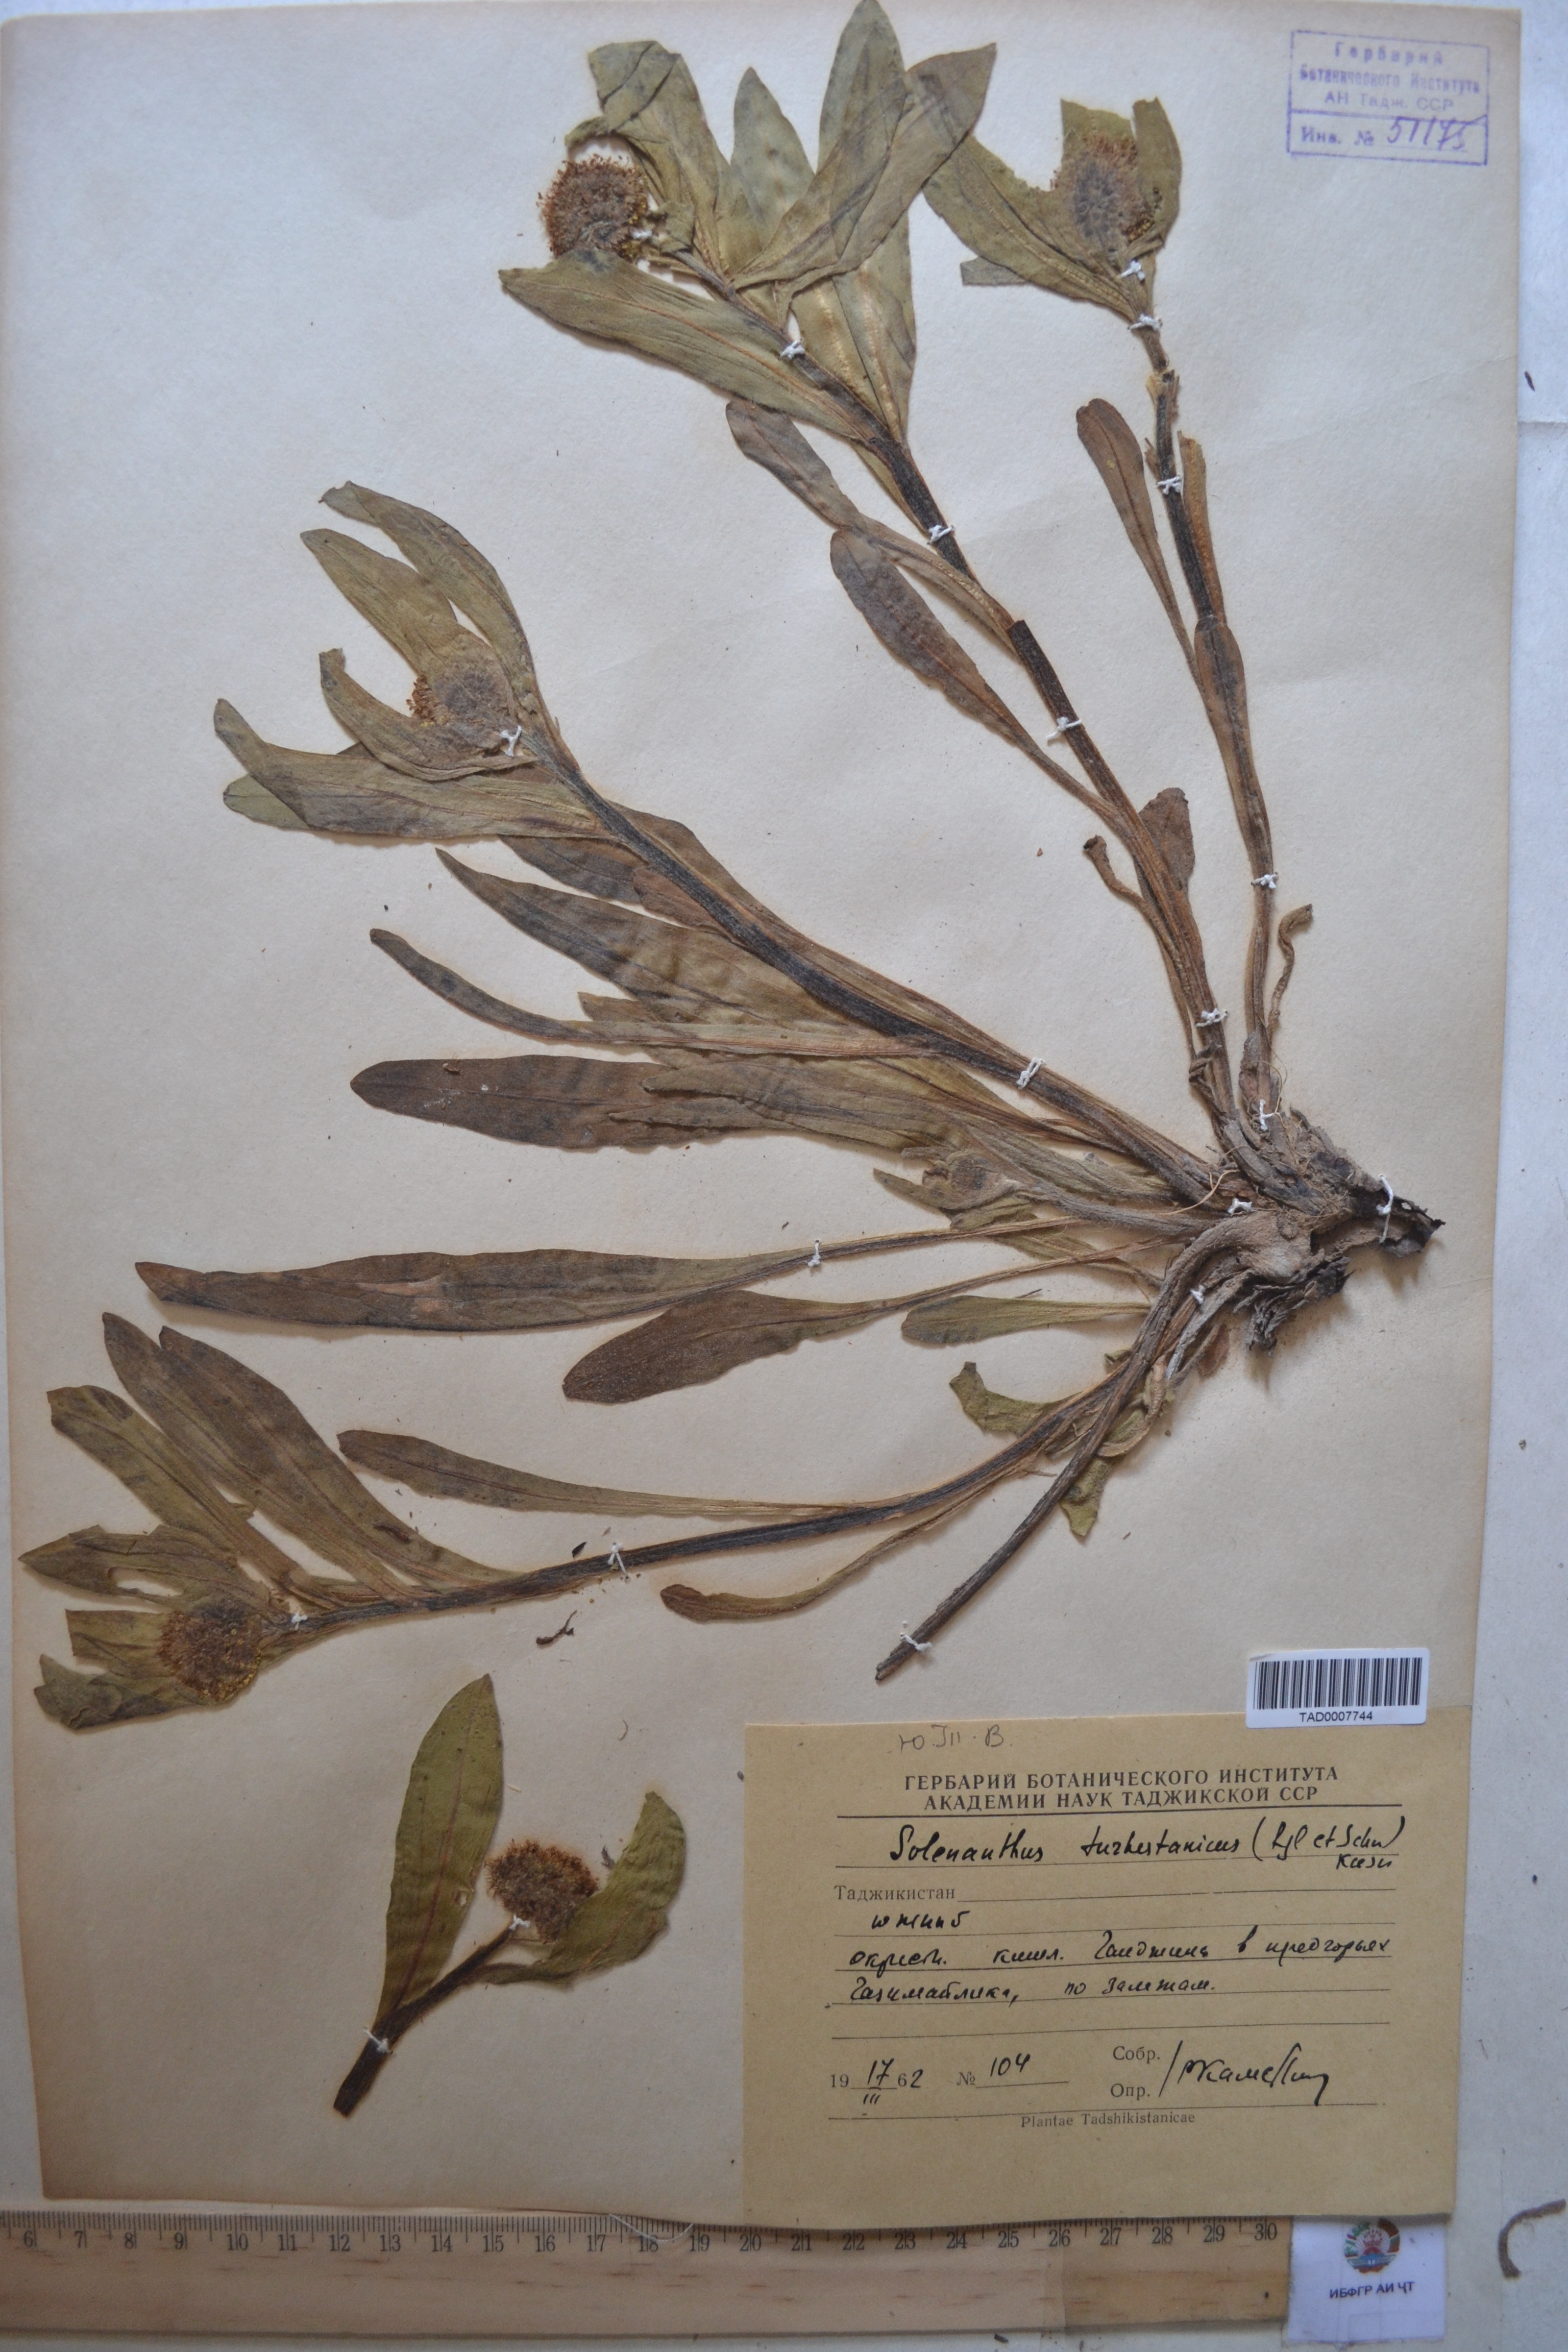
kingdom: Plantae
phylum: Tracheophyta
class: Magnoliopsida
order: Boraginales
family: Boraginaceae
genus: Solenanthus
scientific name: Solenanthus turkestanicus
